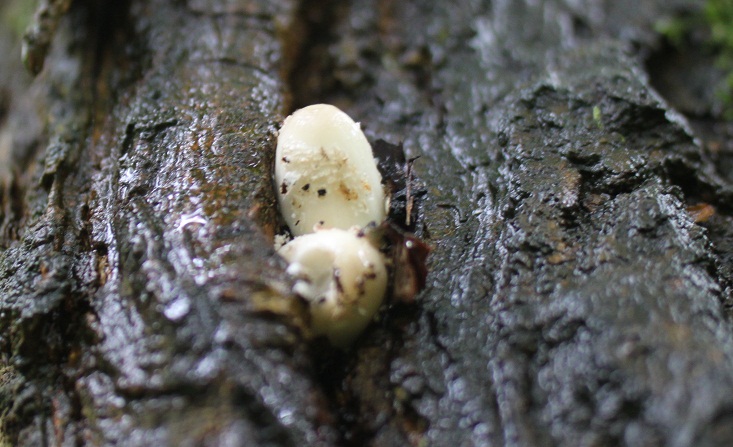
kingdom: Fungi
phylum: Basidiomycota
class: Agaricomycetes
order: Agaricales
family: Psathyrellaceae
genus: Coprinopsis
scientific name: Coprinopsis mitrispora
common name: hul-blækhat
